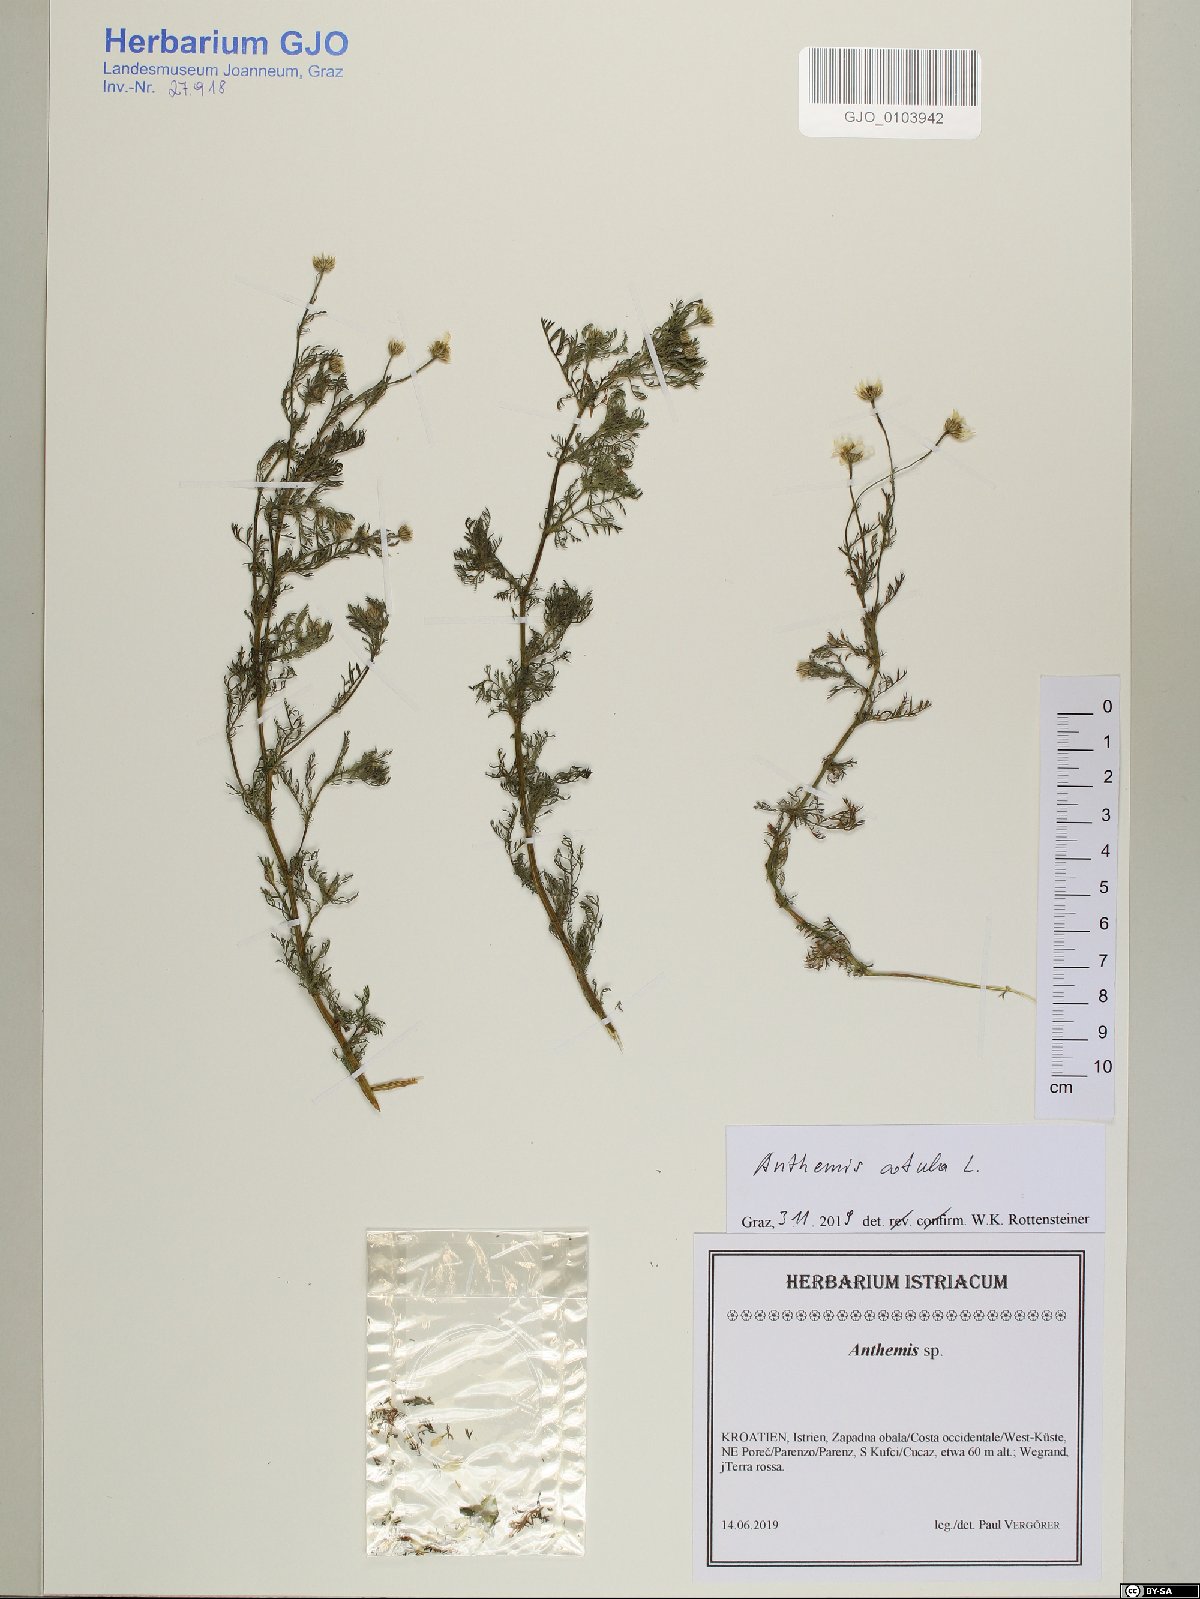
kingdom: Plantae
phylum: Tracheophyta
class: Magnoliopsida
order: Asterales
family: Asteraceae
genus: Anthemis
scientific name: Anthemis cotula
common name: Stinking chamomile
